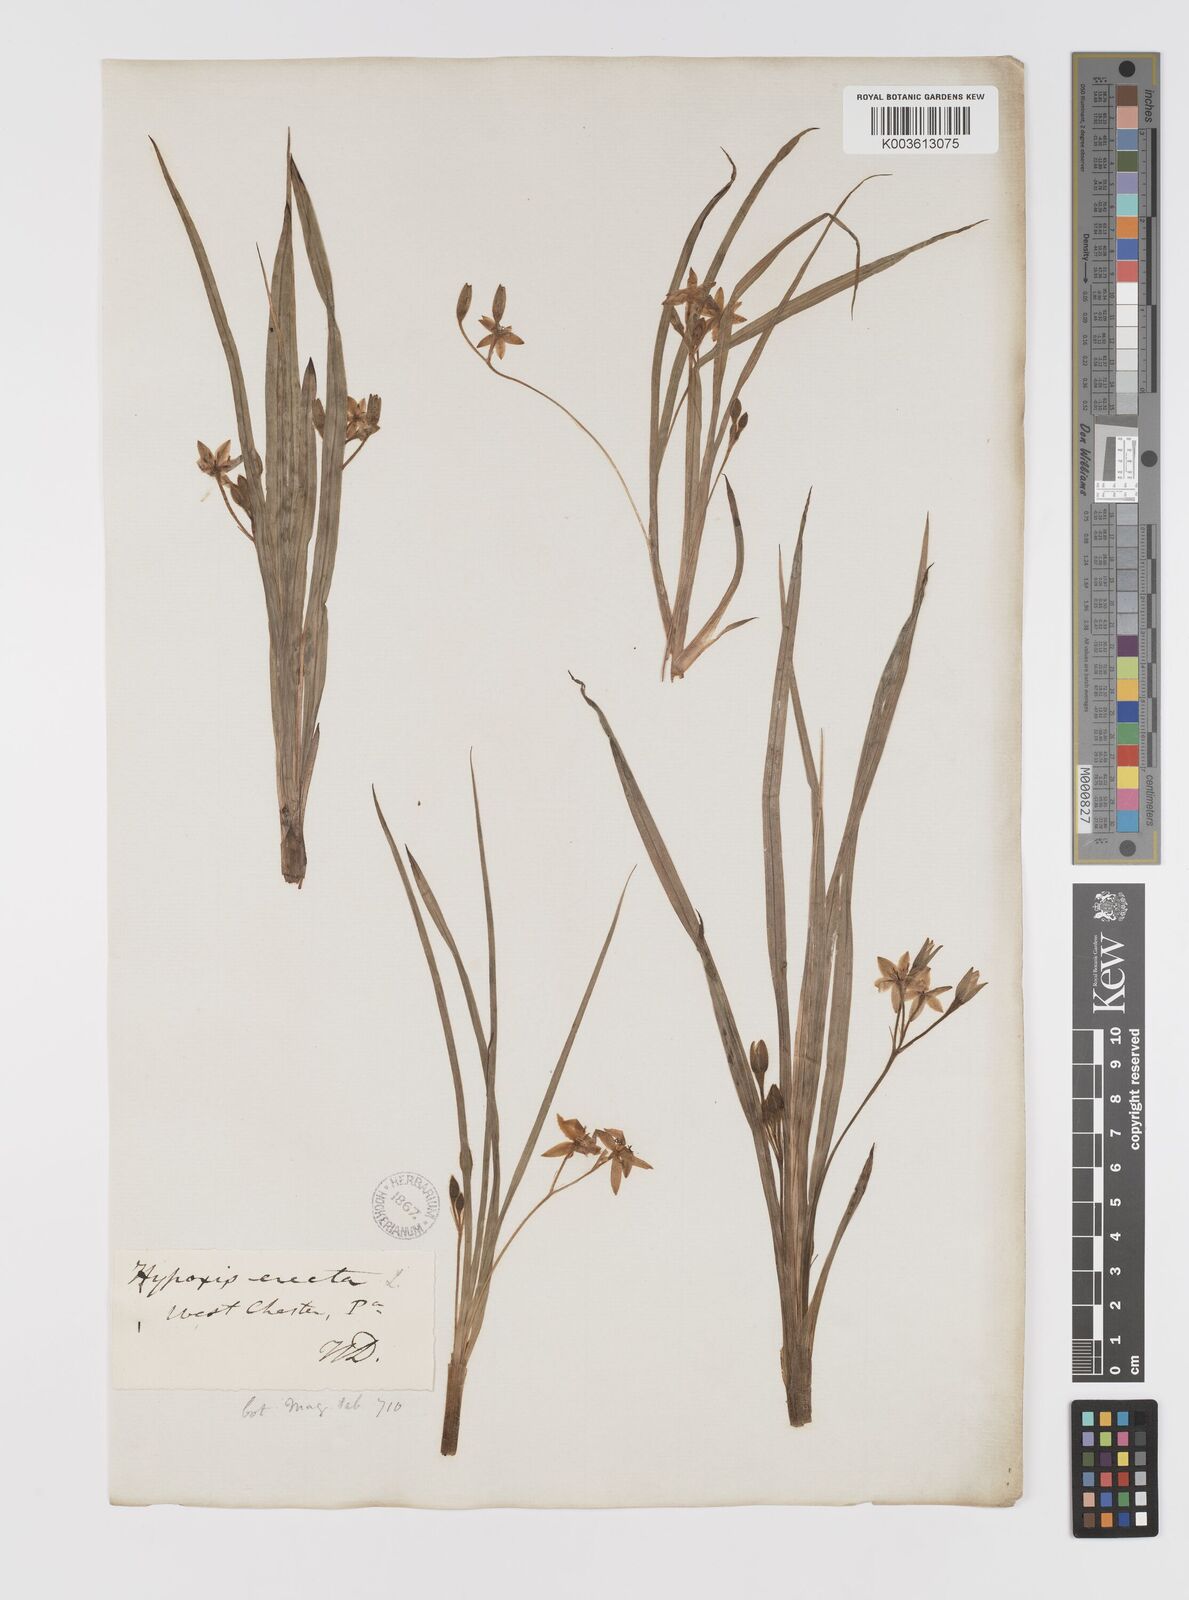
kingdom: Plantae
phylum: Tracheophyta
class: Liliopsida
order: Asparagales
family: Hypoxidaceae
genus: Hypoxis
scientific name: Hypoxis hirsuta
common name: Common goldstar
